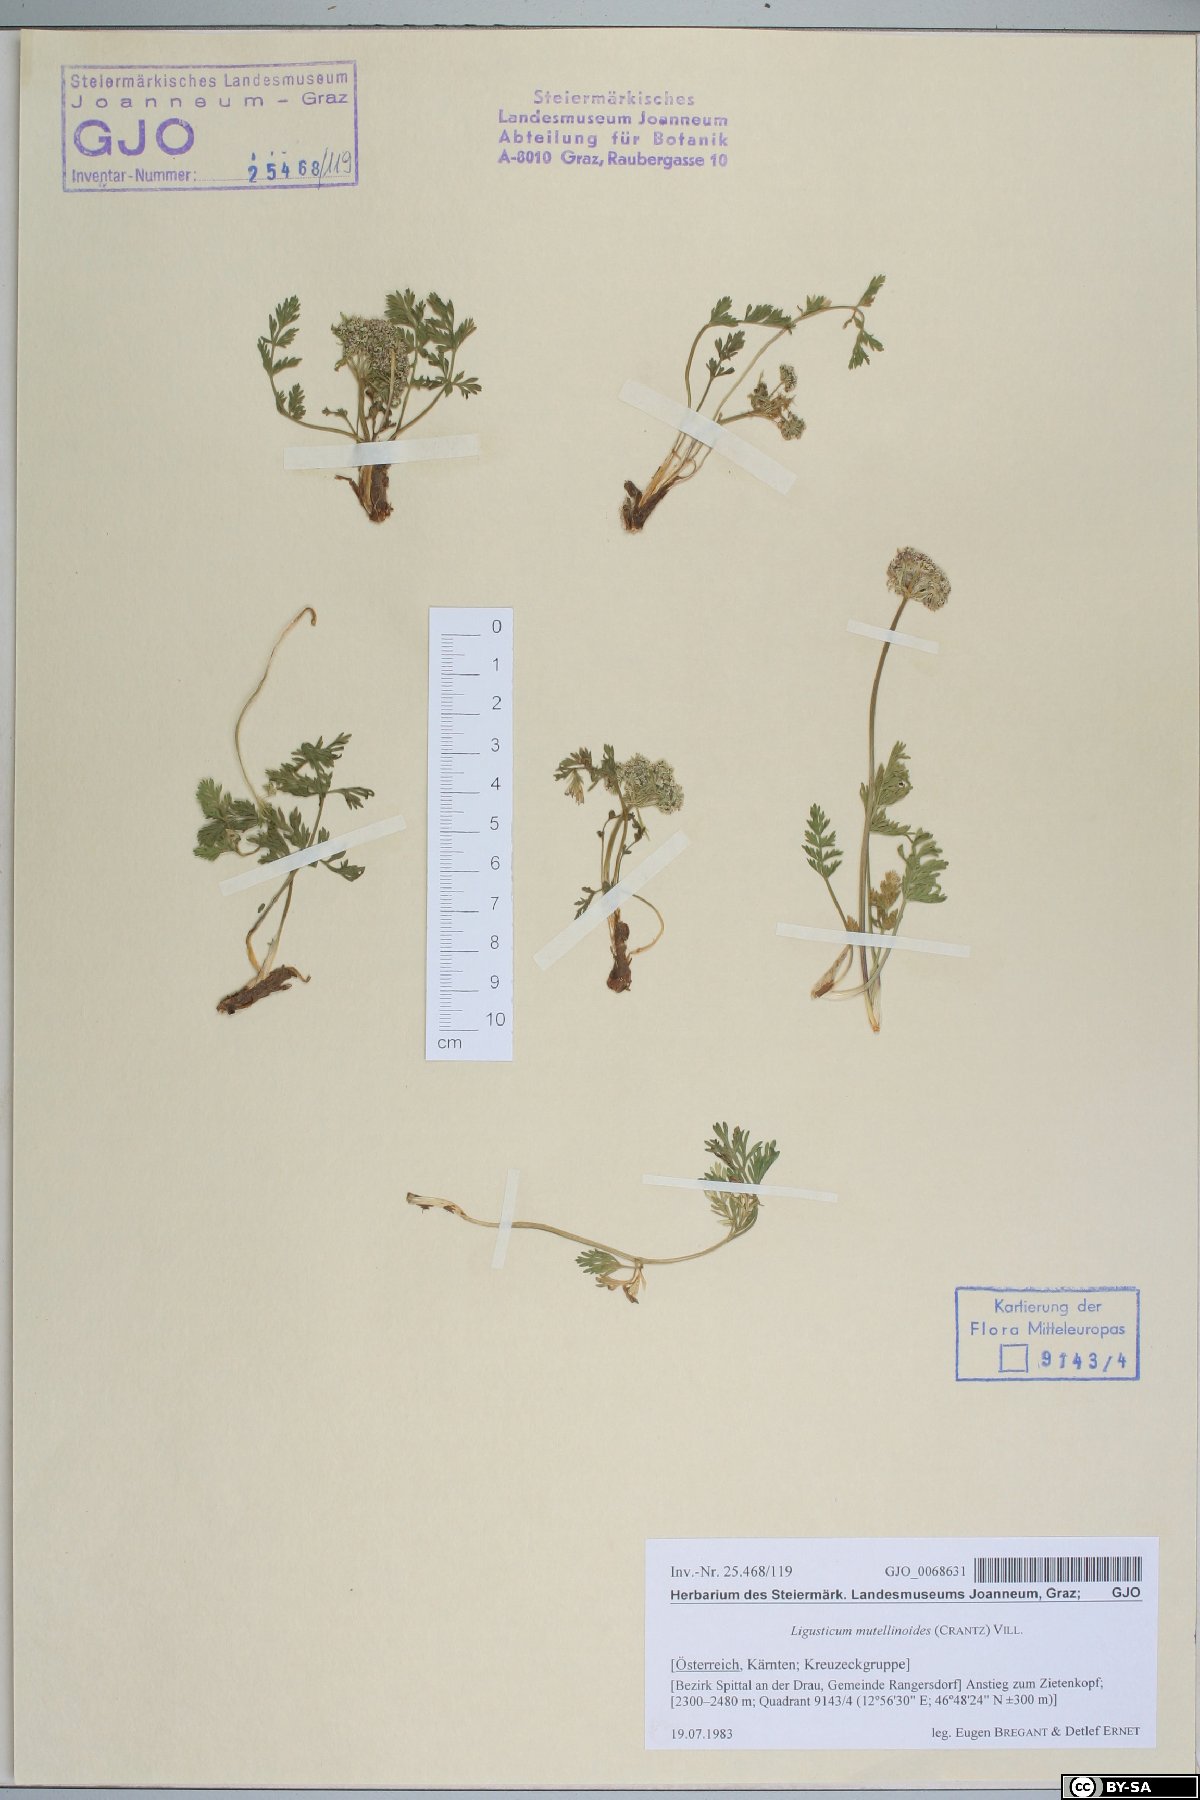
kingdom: Plantae
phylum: Tracheophyta
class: Magnoliopsida
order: Apiales
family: Apiaceae
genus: Pachypleurum
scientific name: Pachypleurum mutellinoides
